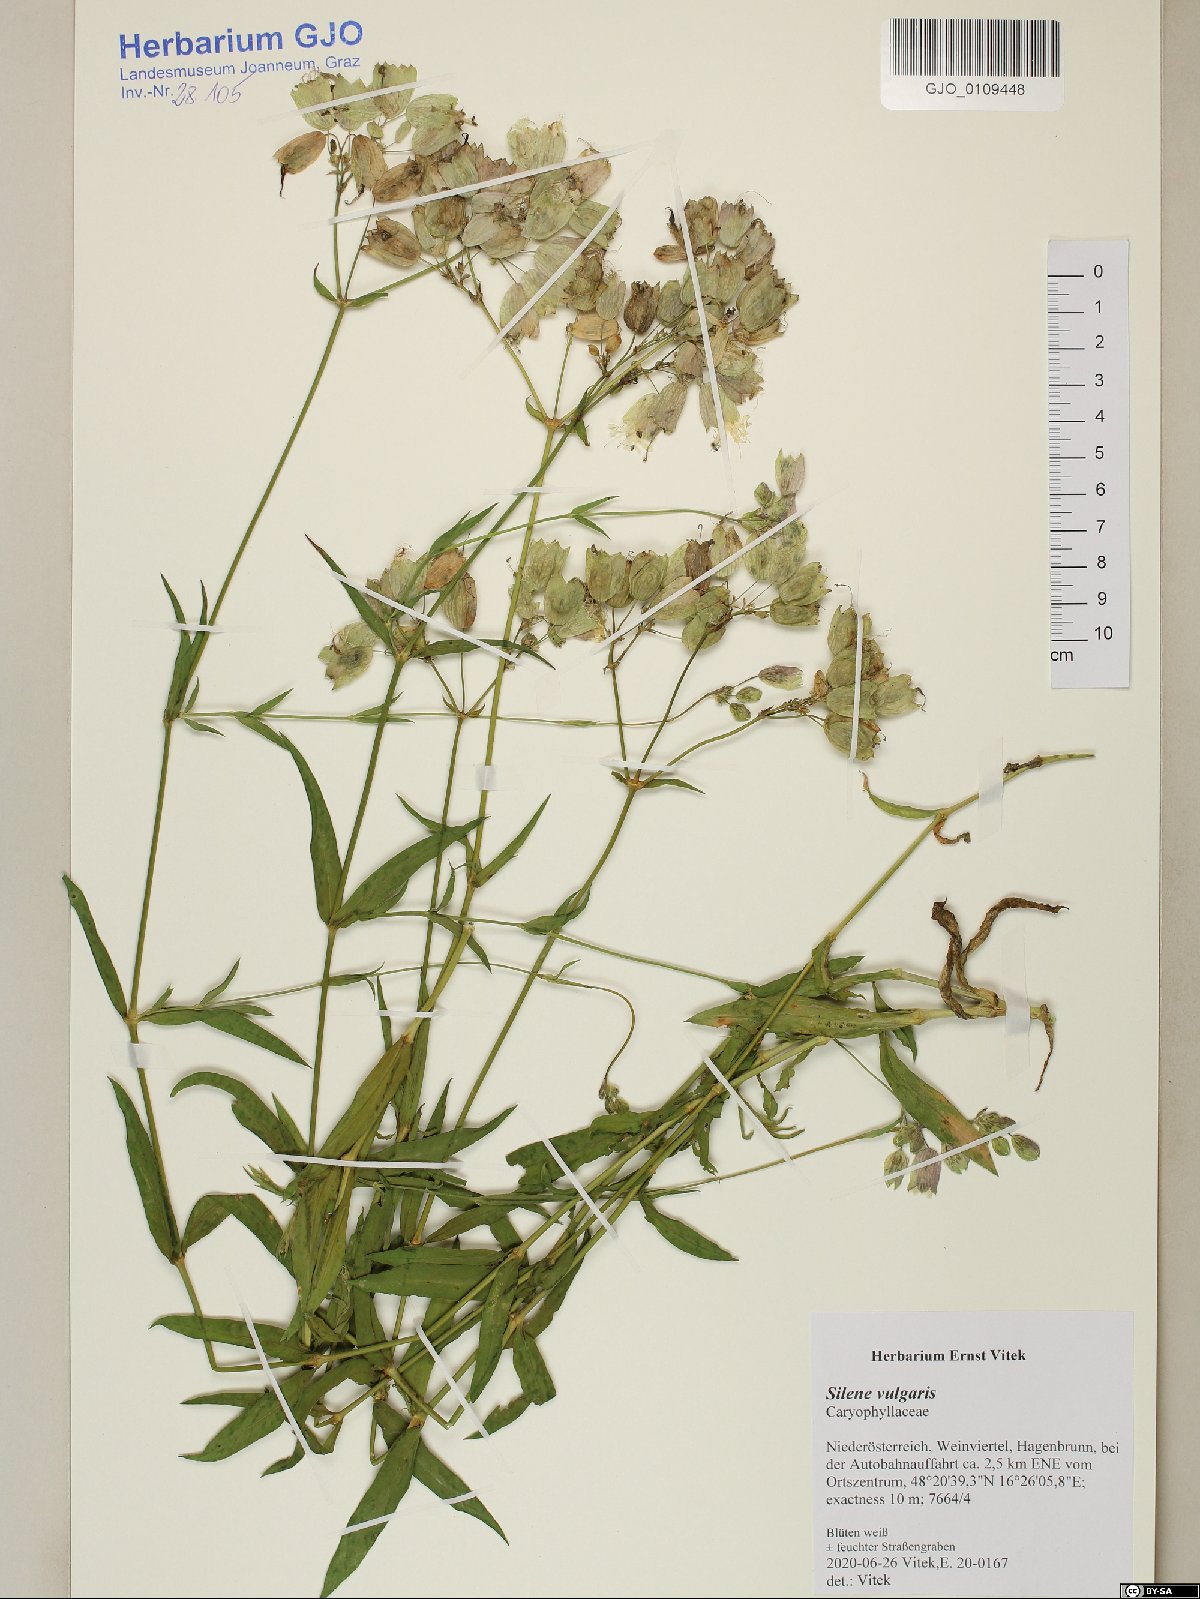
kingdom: Plantae
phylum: Tracheophyta
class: Magnoliopsida
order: Caryophyllales
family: Caryophyllaceae
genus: Silene
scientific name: Silene vulgaris
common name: Bladder campion
